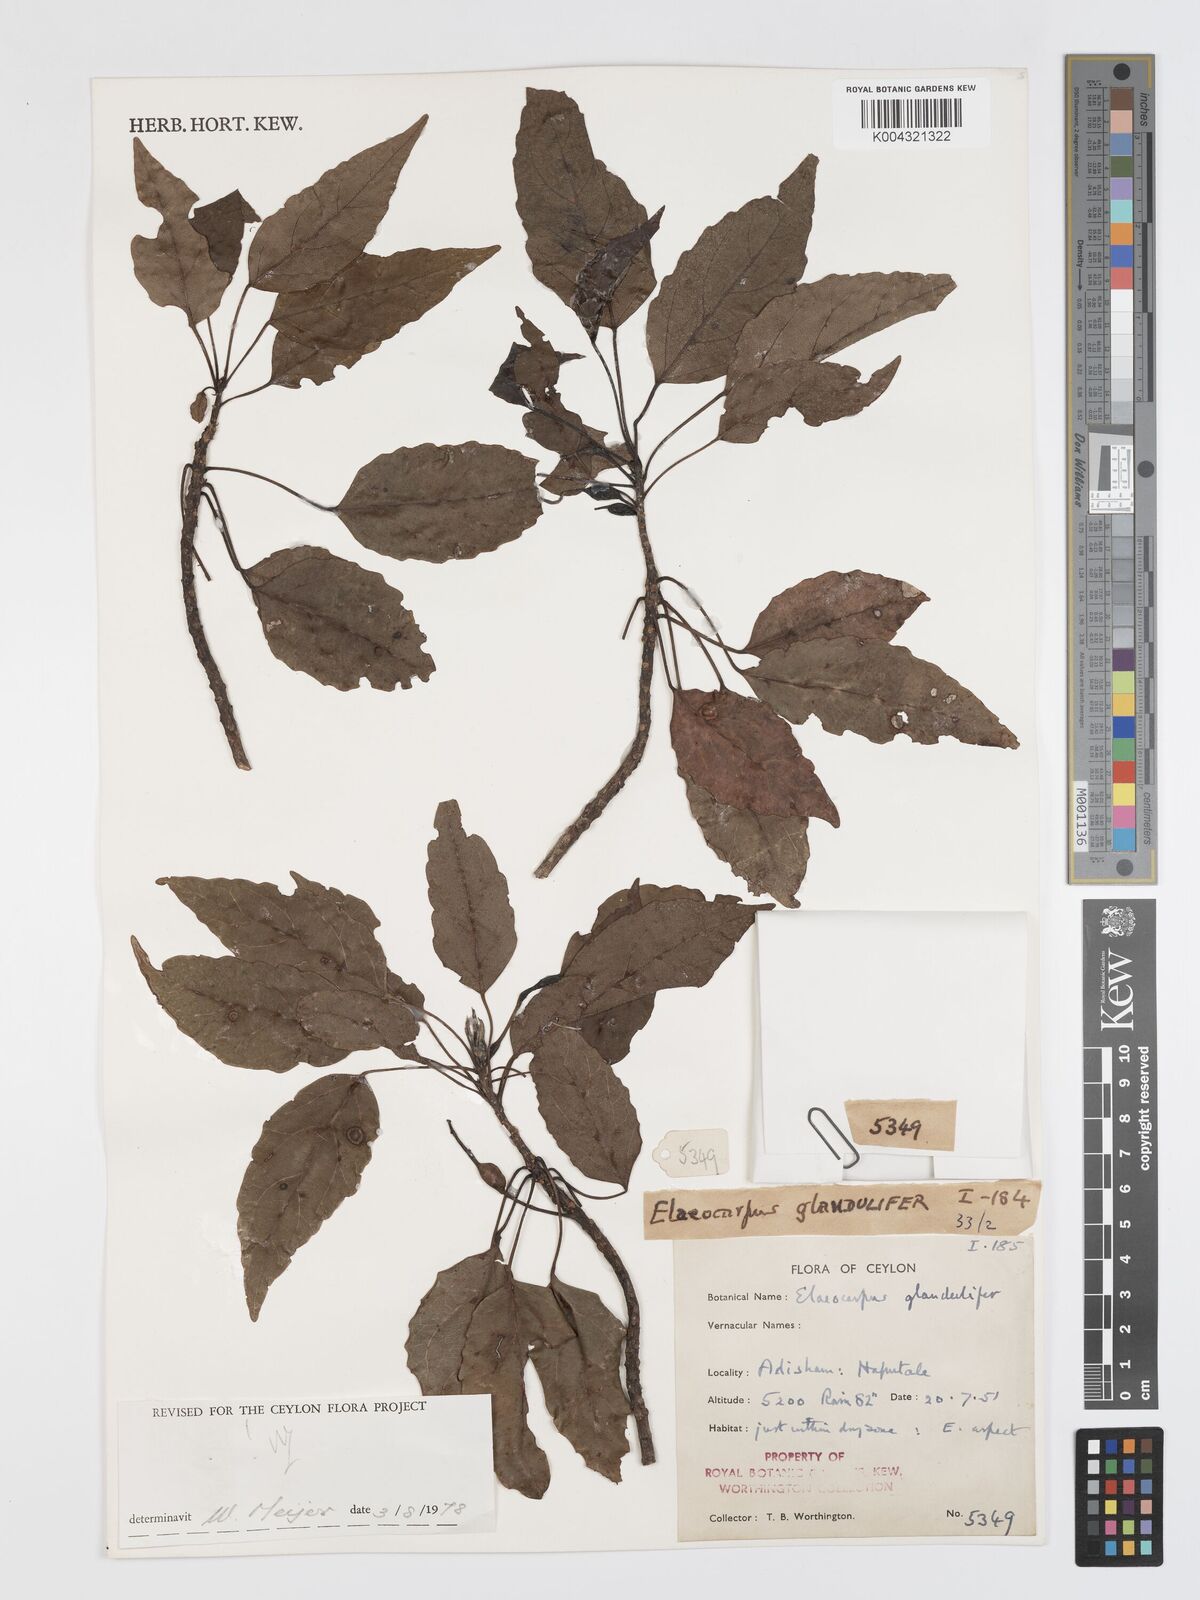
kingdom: Plantae
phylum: Tracheophyta
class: Magnoliopsida
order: Oxalidales
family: Elaeocarpaceae
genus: Elaeocarpus
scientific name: Elaeocarpus glandulifer
